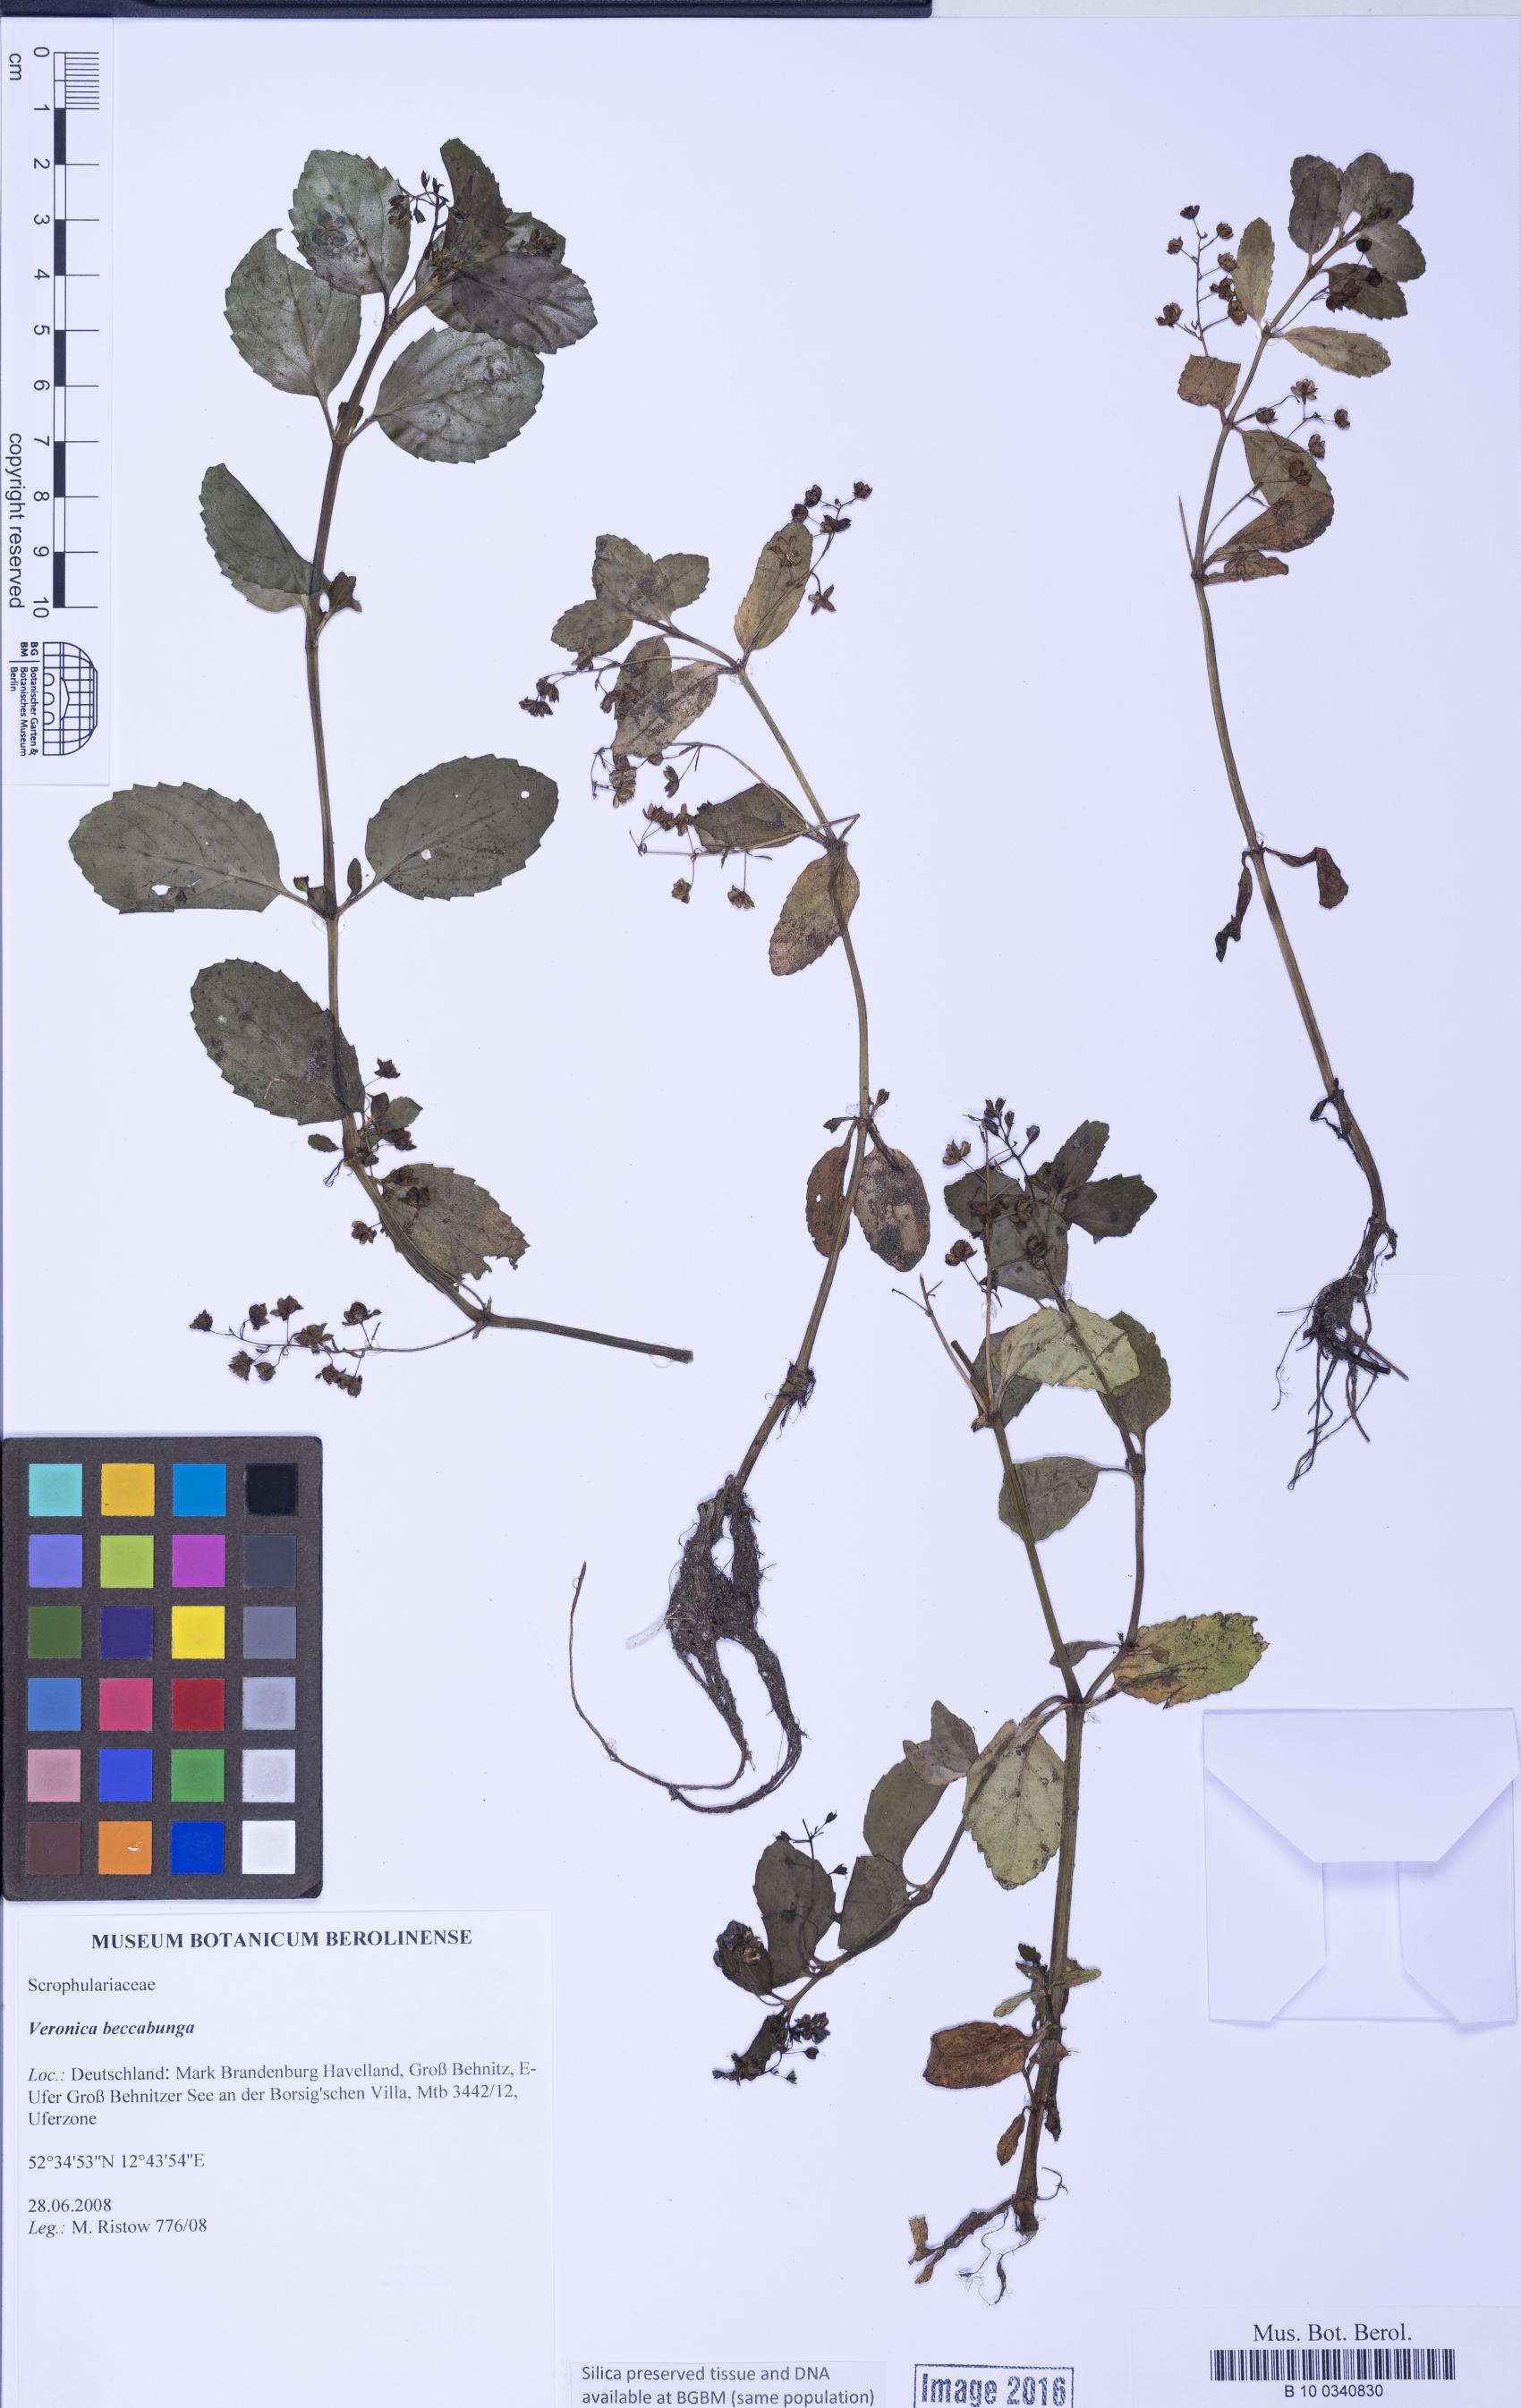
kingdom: Plantae
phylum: Tracheophyta
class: Magnoliopsida
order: Lamiales
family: Plantaginaceae
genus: Veronica
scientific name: Veronica beccabunga
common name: Brooklime
